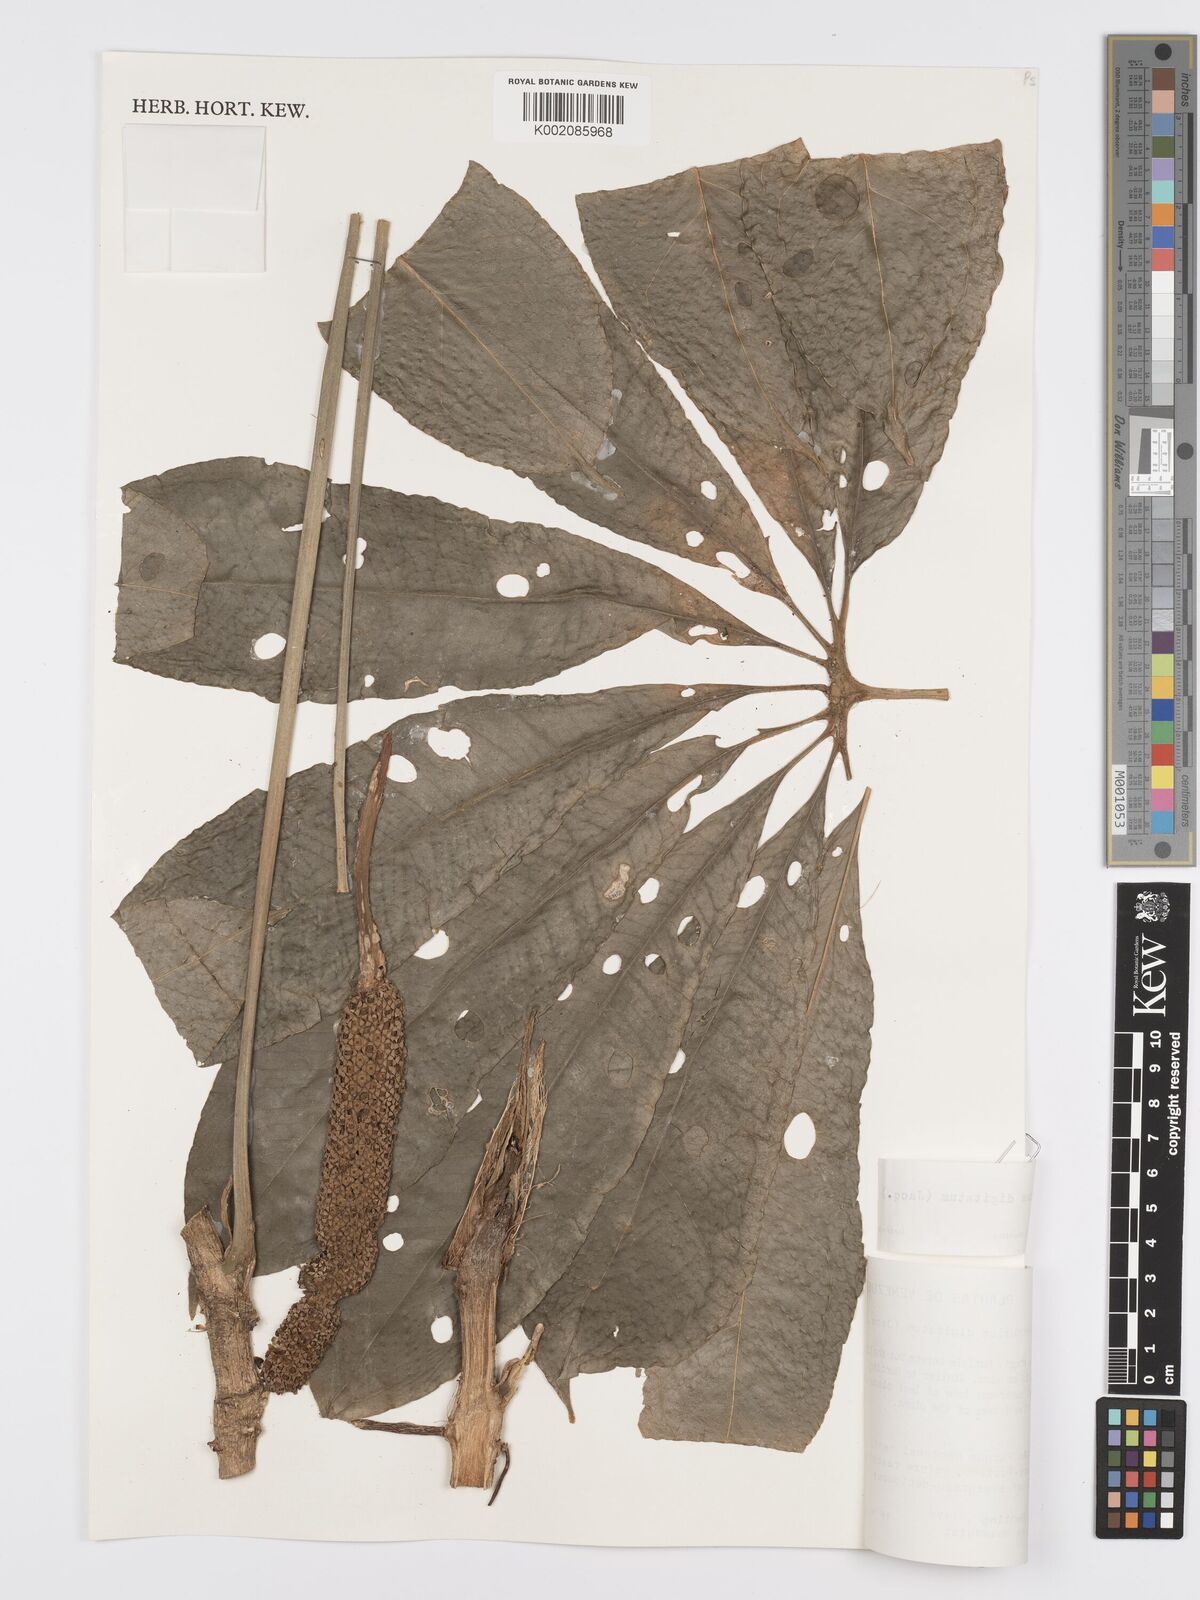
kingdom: Plantae
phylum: Tracheophyta
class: Liliopsida
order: Alismatales
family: Araceae
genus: Anthurium
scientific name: Anthurium digitatum
